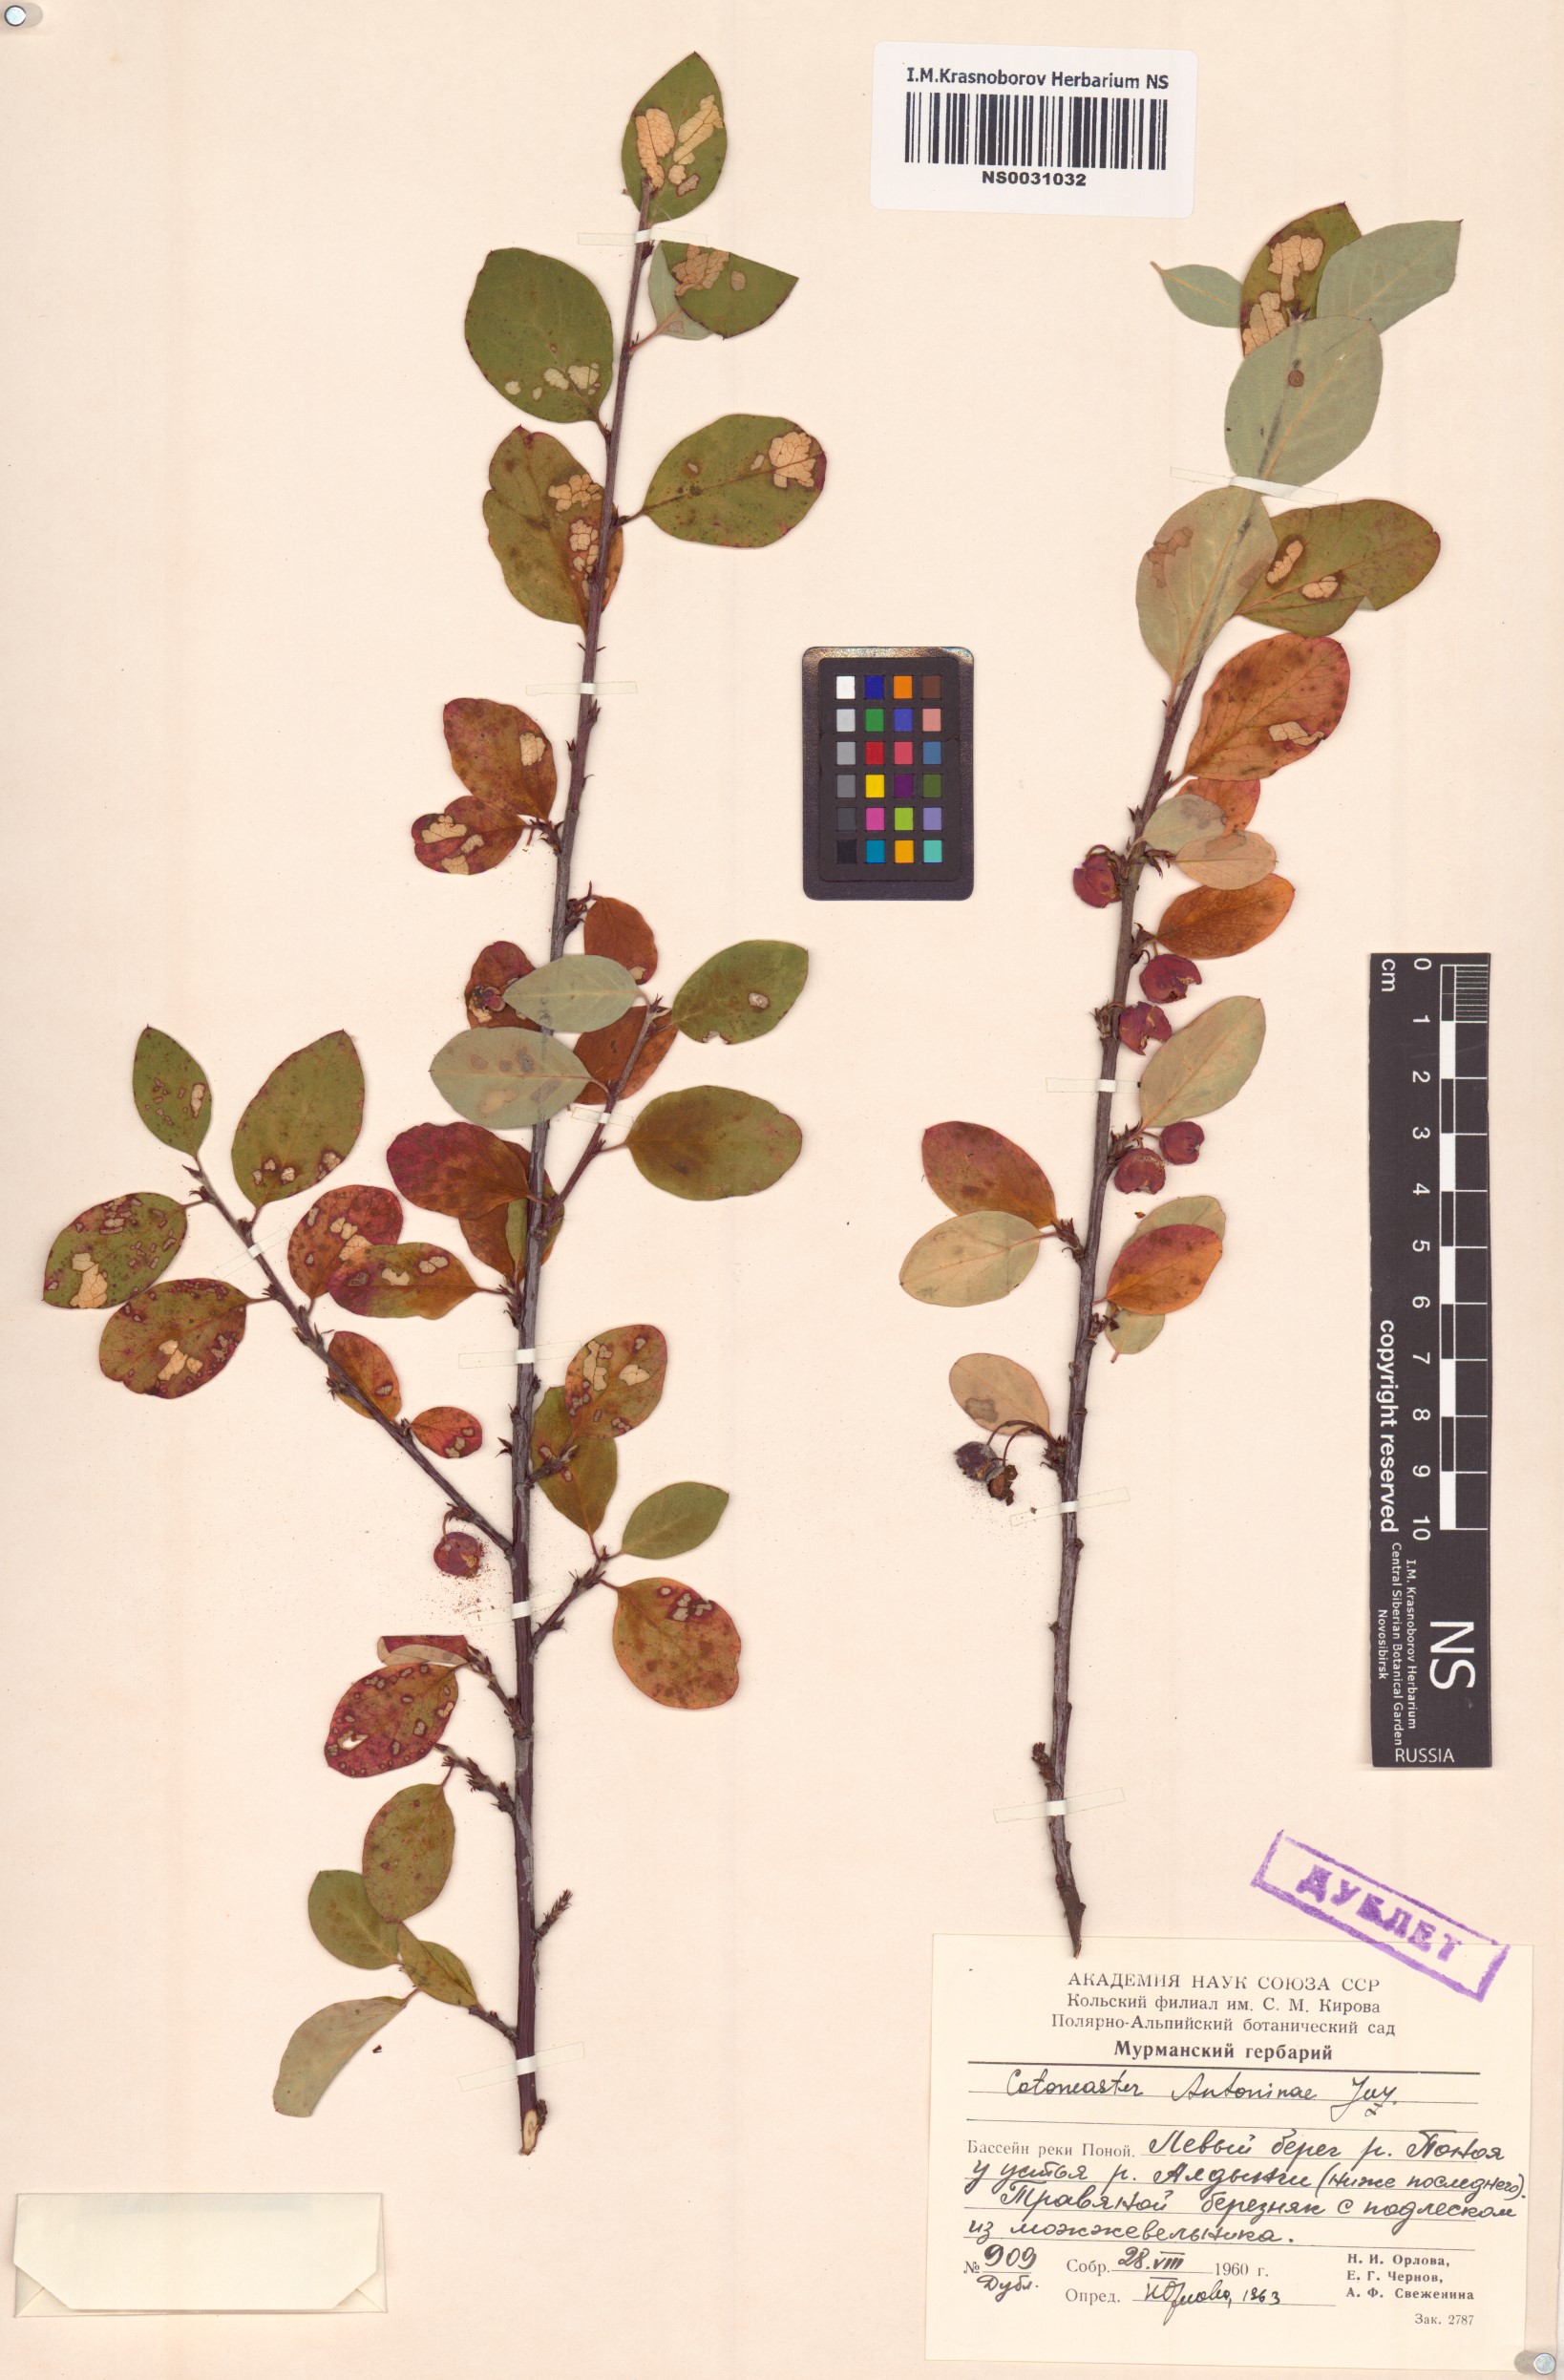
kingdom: Plantae
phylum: Tracheophyta
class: Magnoliopsida
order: Rosales
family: Rosaceae
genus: Cotoneaster
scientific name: Cotoneaster laxiflorus
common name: Black-fruit cotoneaster
